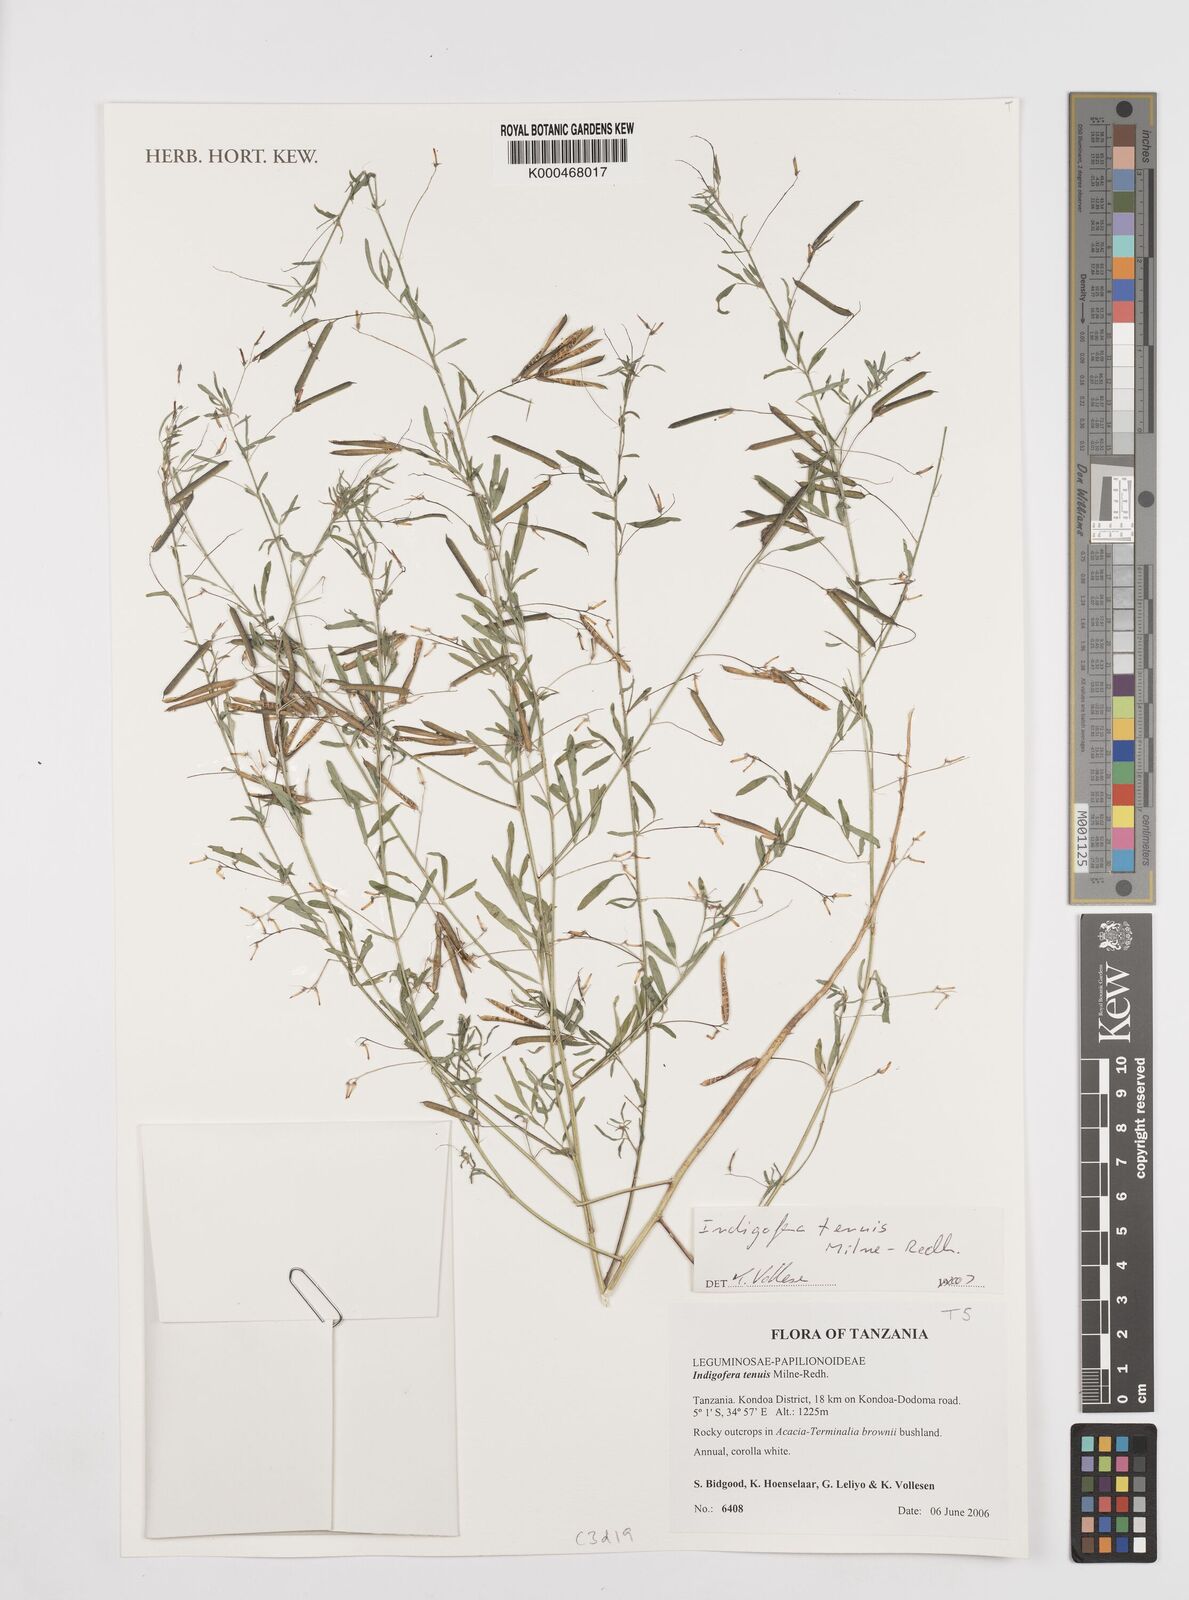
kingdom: Plantae
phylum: Tracheophyta
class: Magnoliopsida
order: Fabales
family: Fabaceae
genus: Indigofera
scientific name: Indigofera dissitiflora
